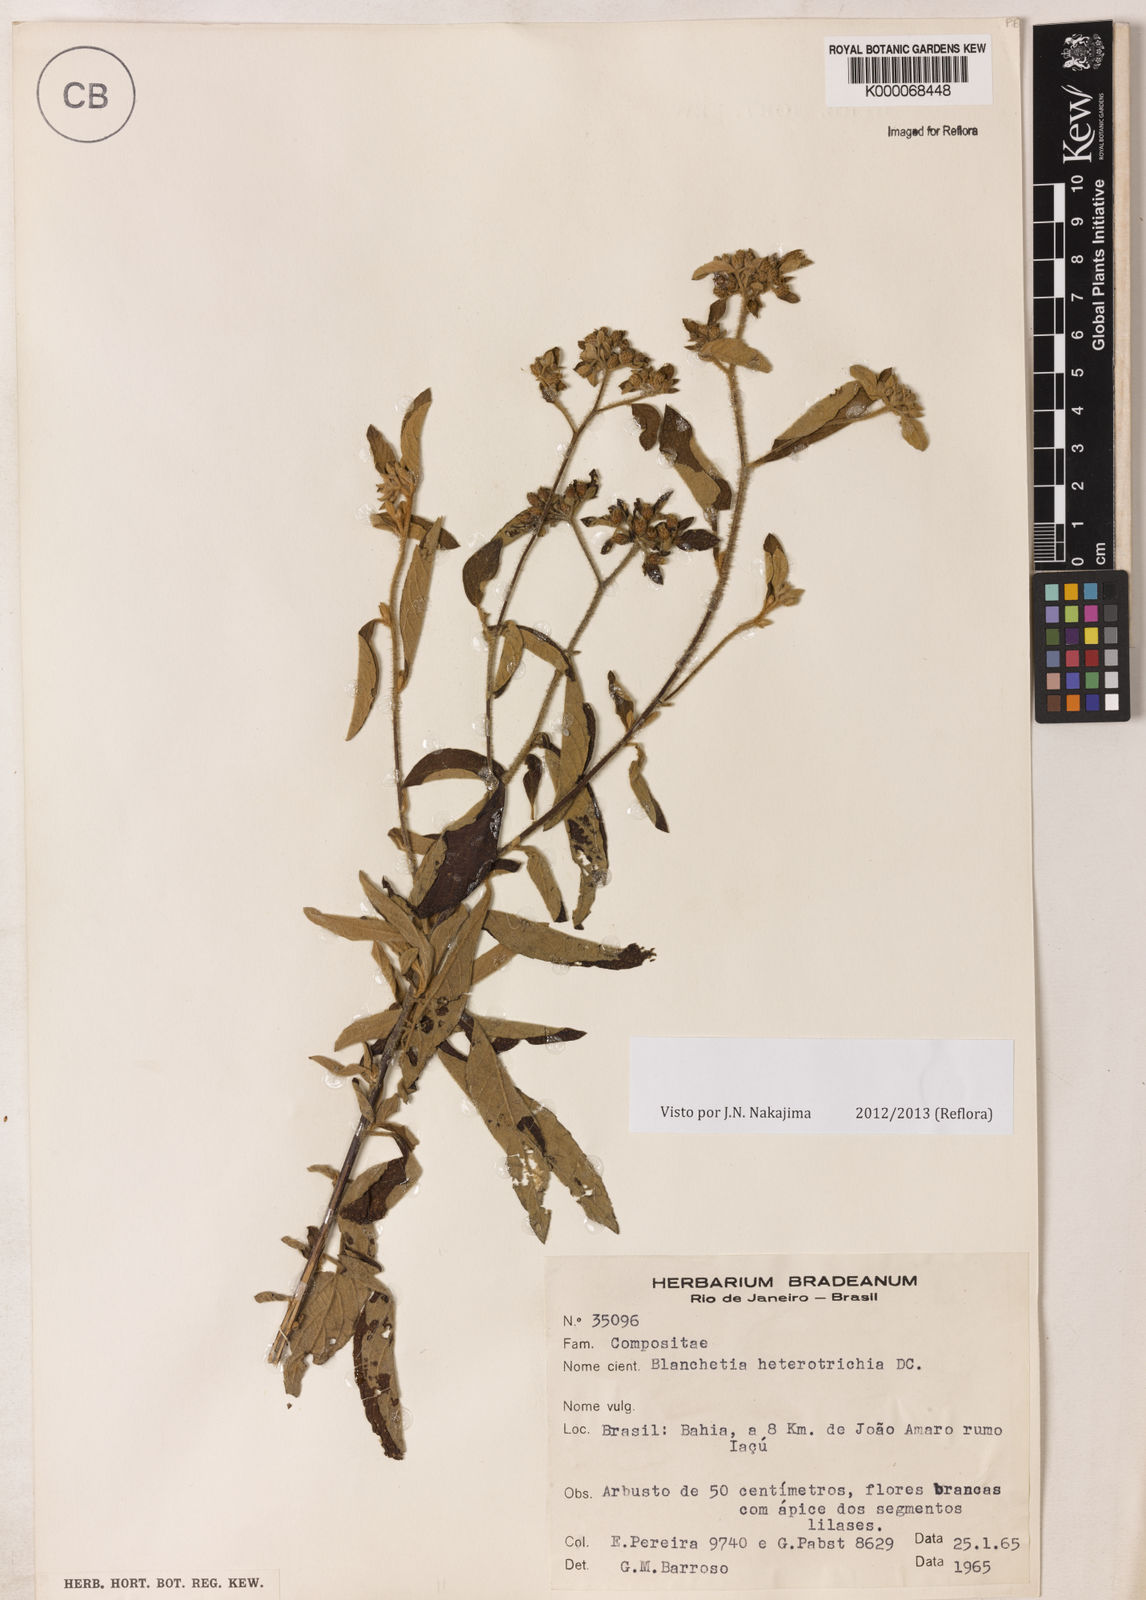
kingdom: Plantae
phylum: Tracheophyta
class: Magnoliopsida
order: Asterales
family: Asteraceae
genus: Blanchetia
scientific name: Blanchetia heterotricha
